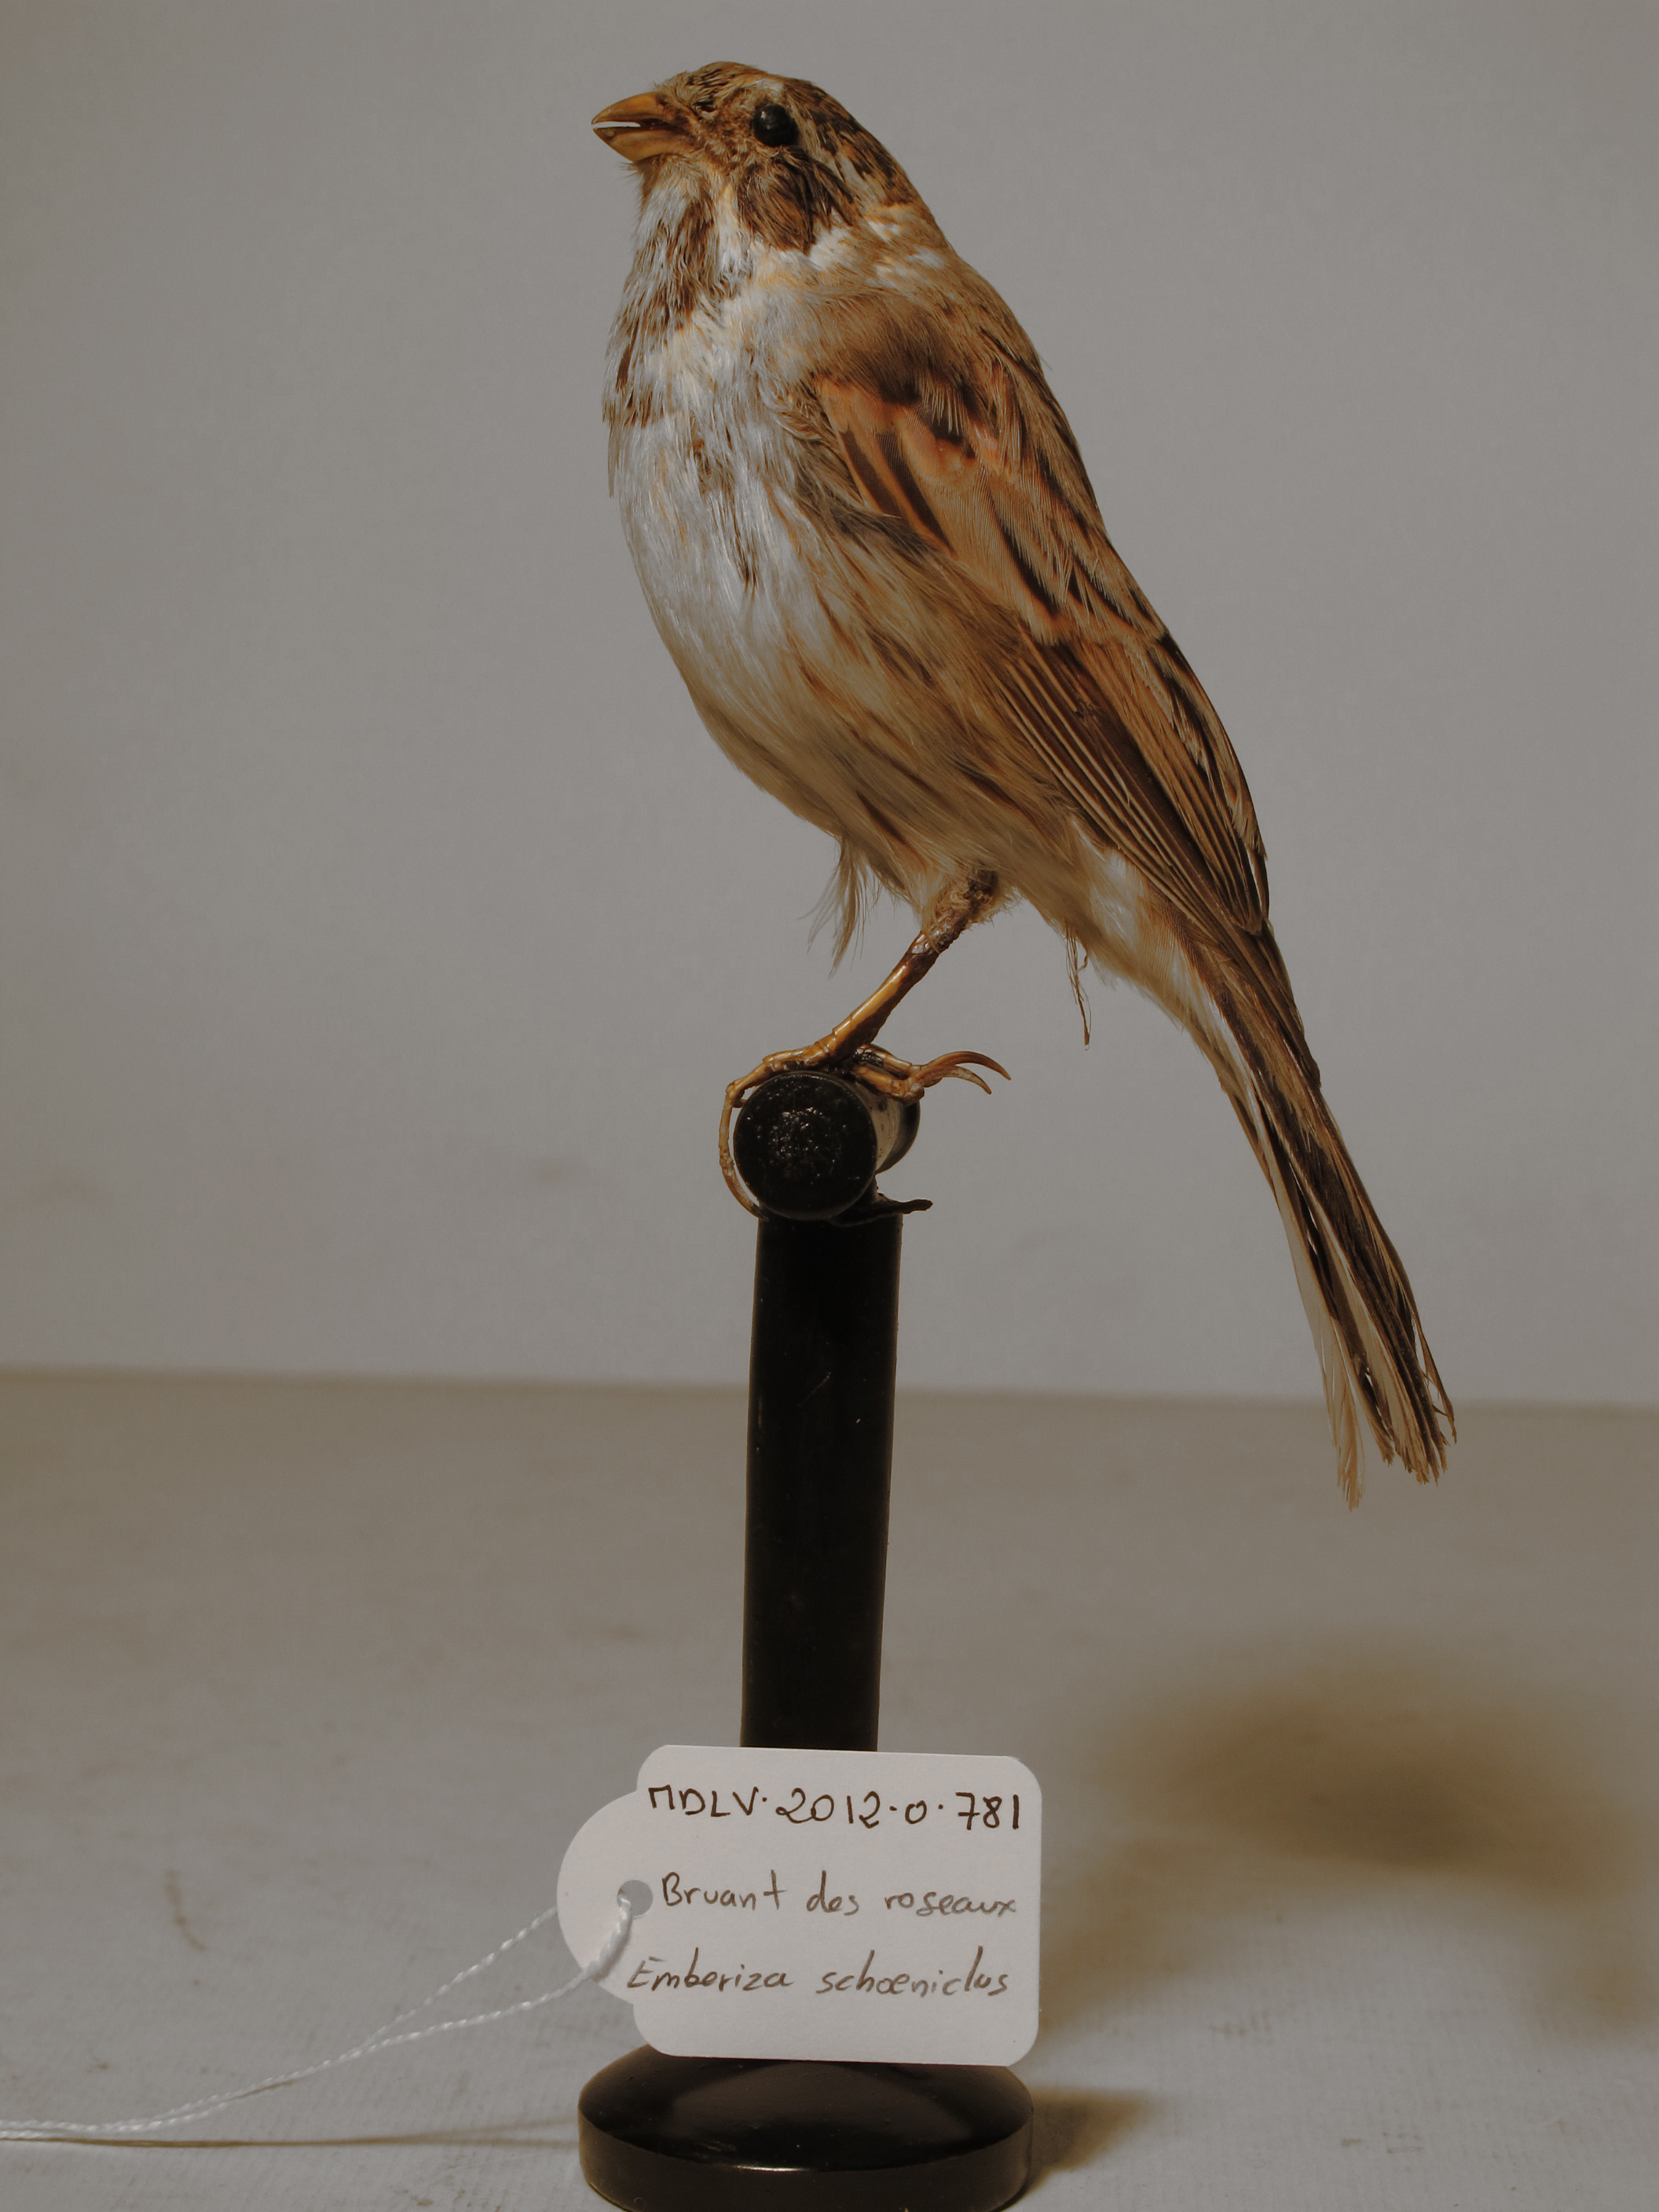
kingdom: Animalia
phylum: Chordata
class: Aves
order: Passeriformes
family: Emberizidae
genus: Emberiza
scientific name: Emberiza schoeniclus
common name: Reed Bunting
